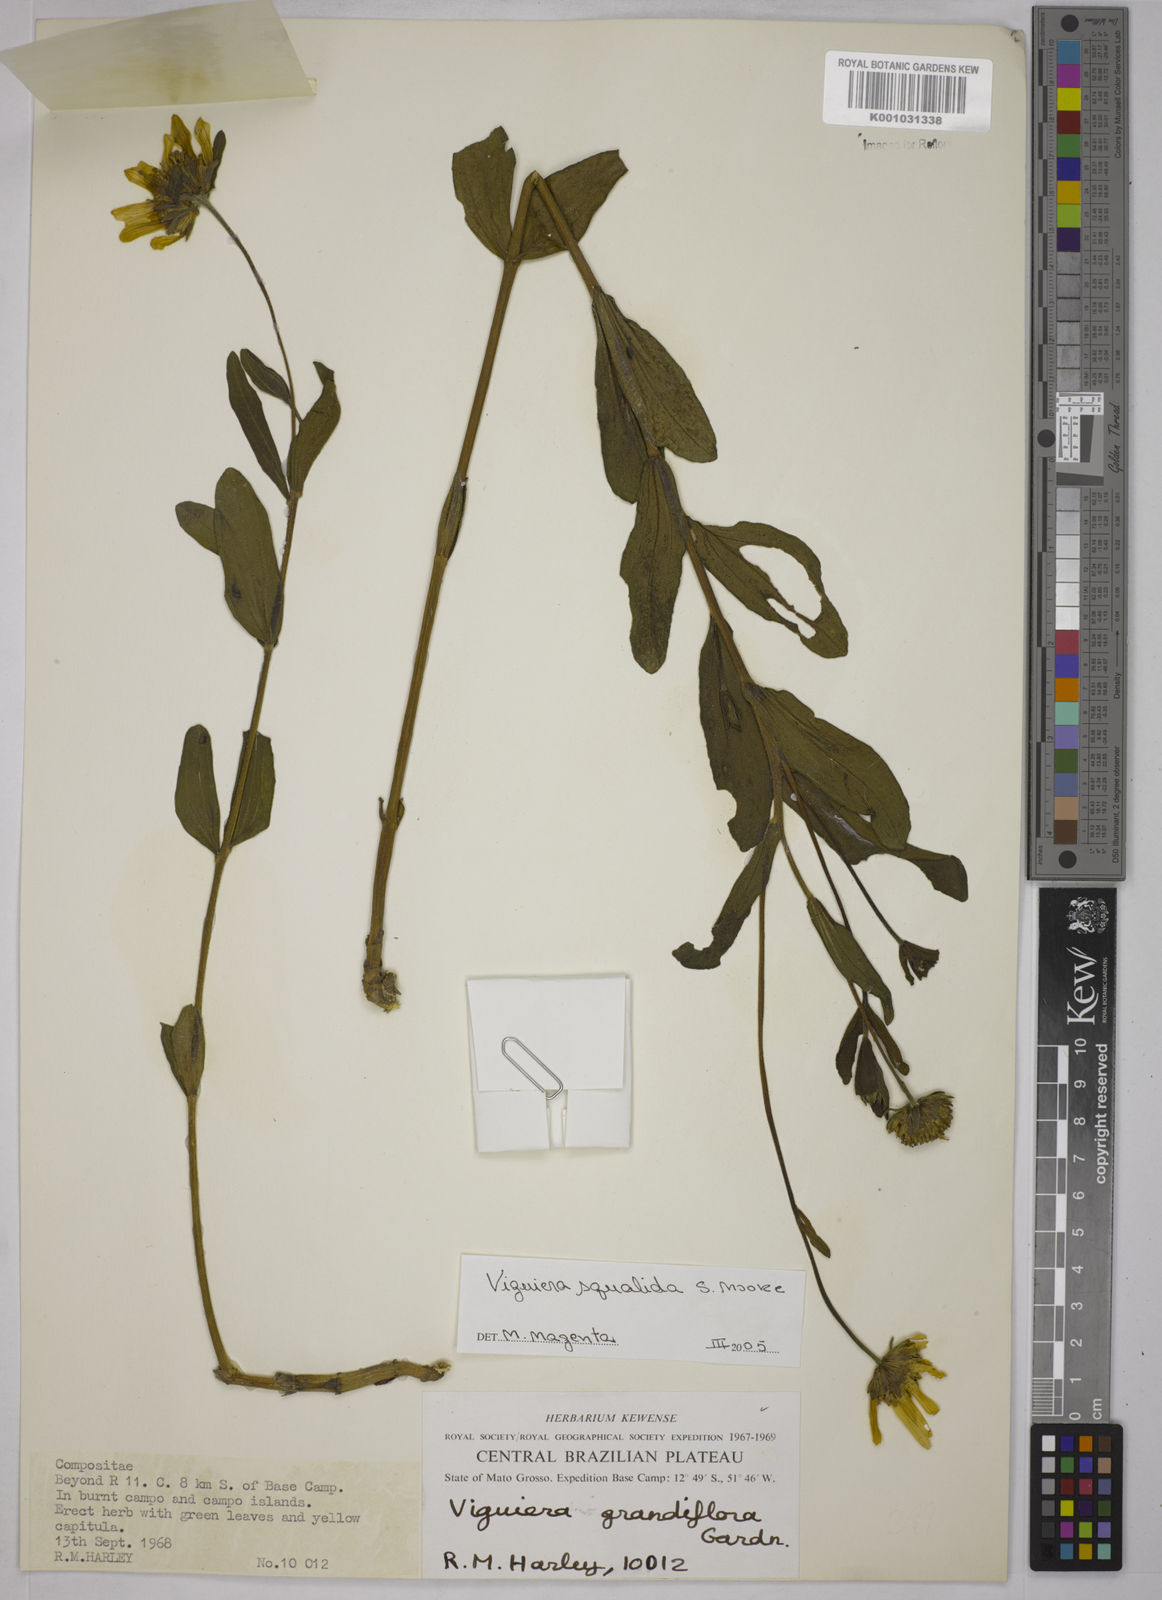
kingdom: Plantae
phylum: Tracheophyta
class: Magnoliopsida
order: Asterales
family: Asteraceae
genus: Aldama
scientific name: Aldama squalida
